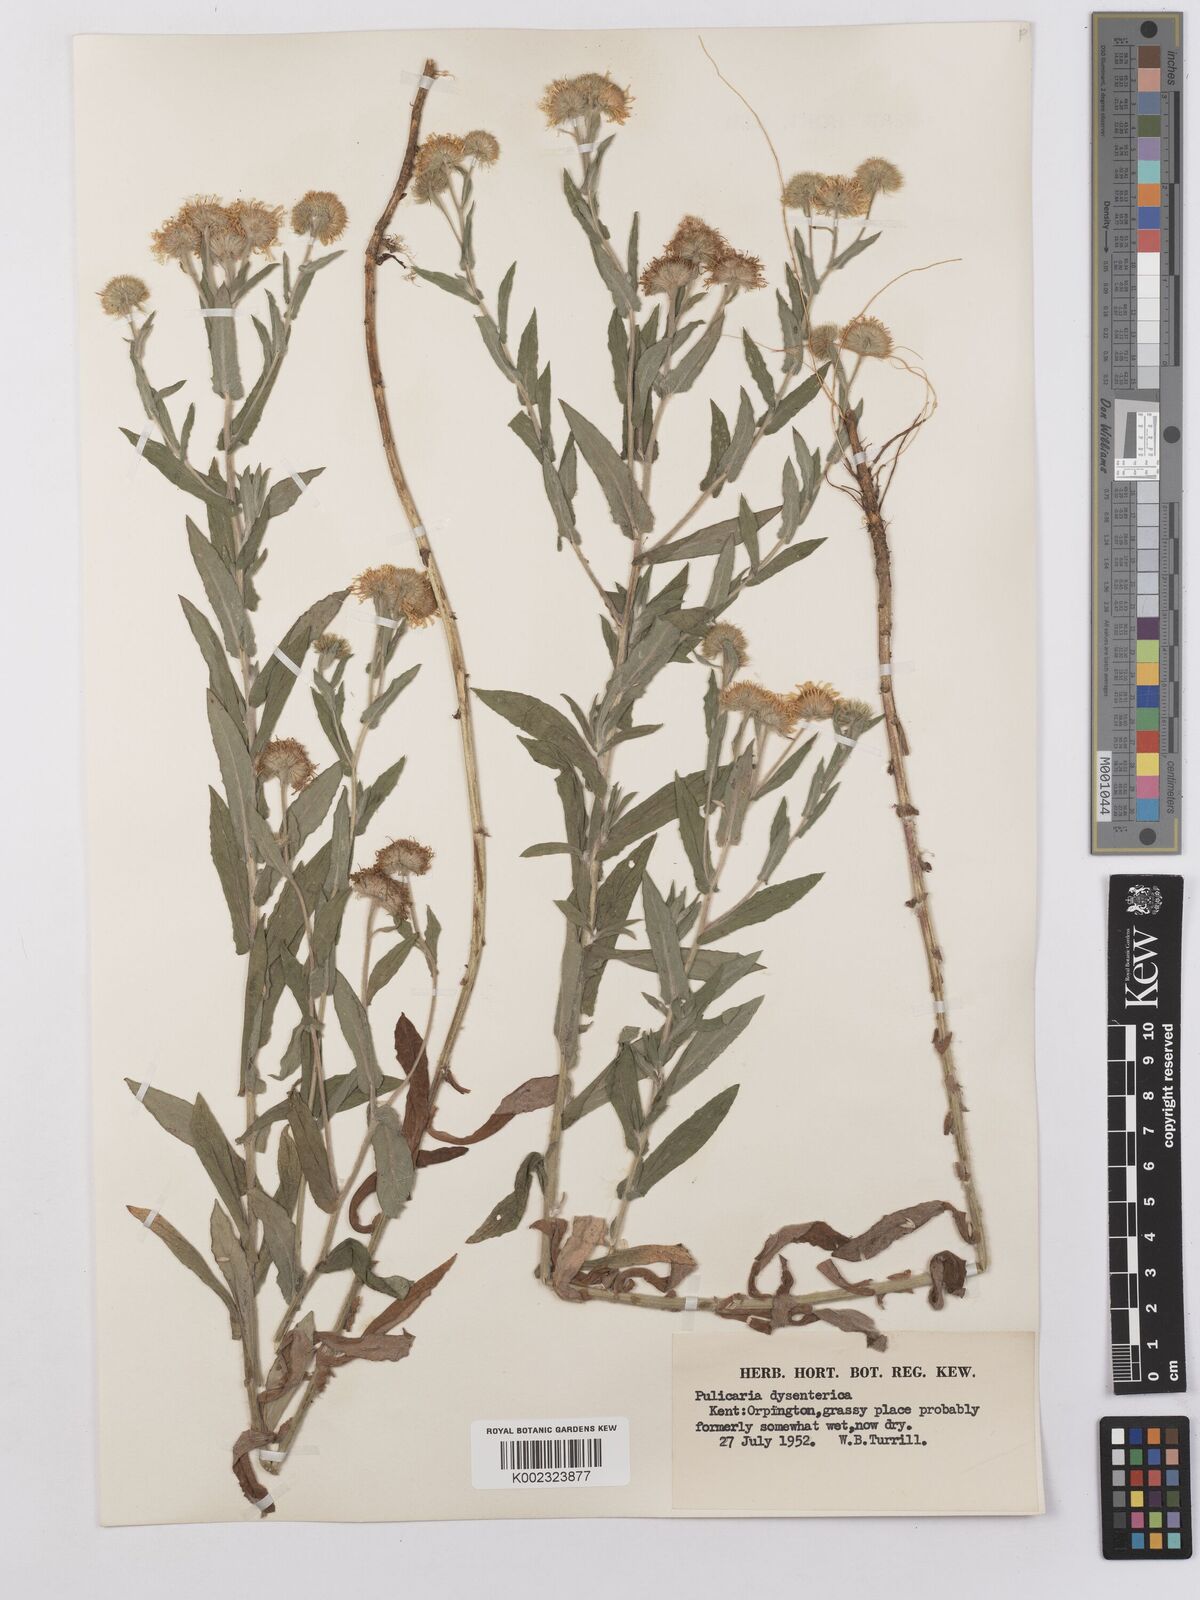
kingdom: Plantae
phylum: Tracheophyta
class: Magnoliopsida
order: Asterales
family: Asteraceae
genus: Pulicaria
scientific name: Pulicaria dysenterica
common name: Common fleabane
